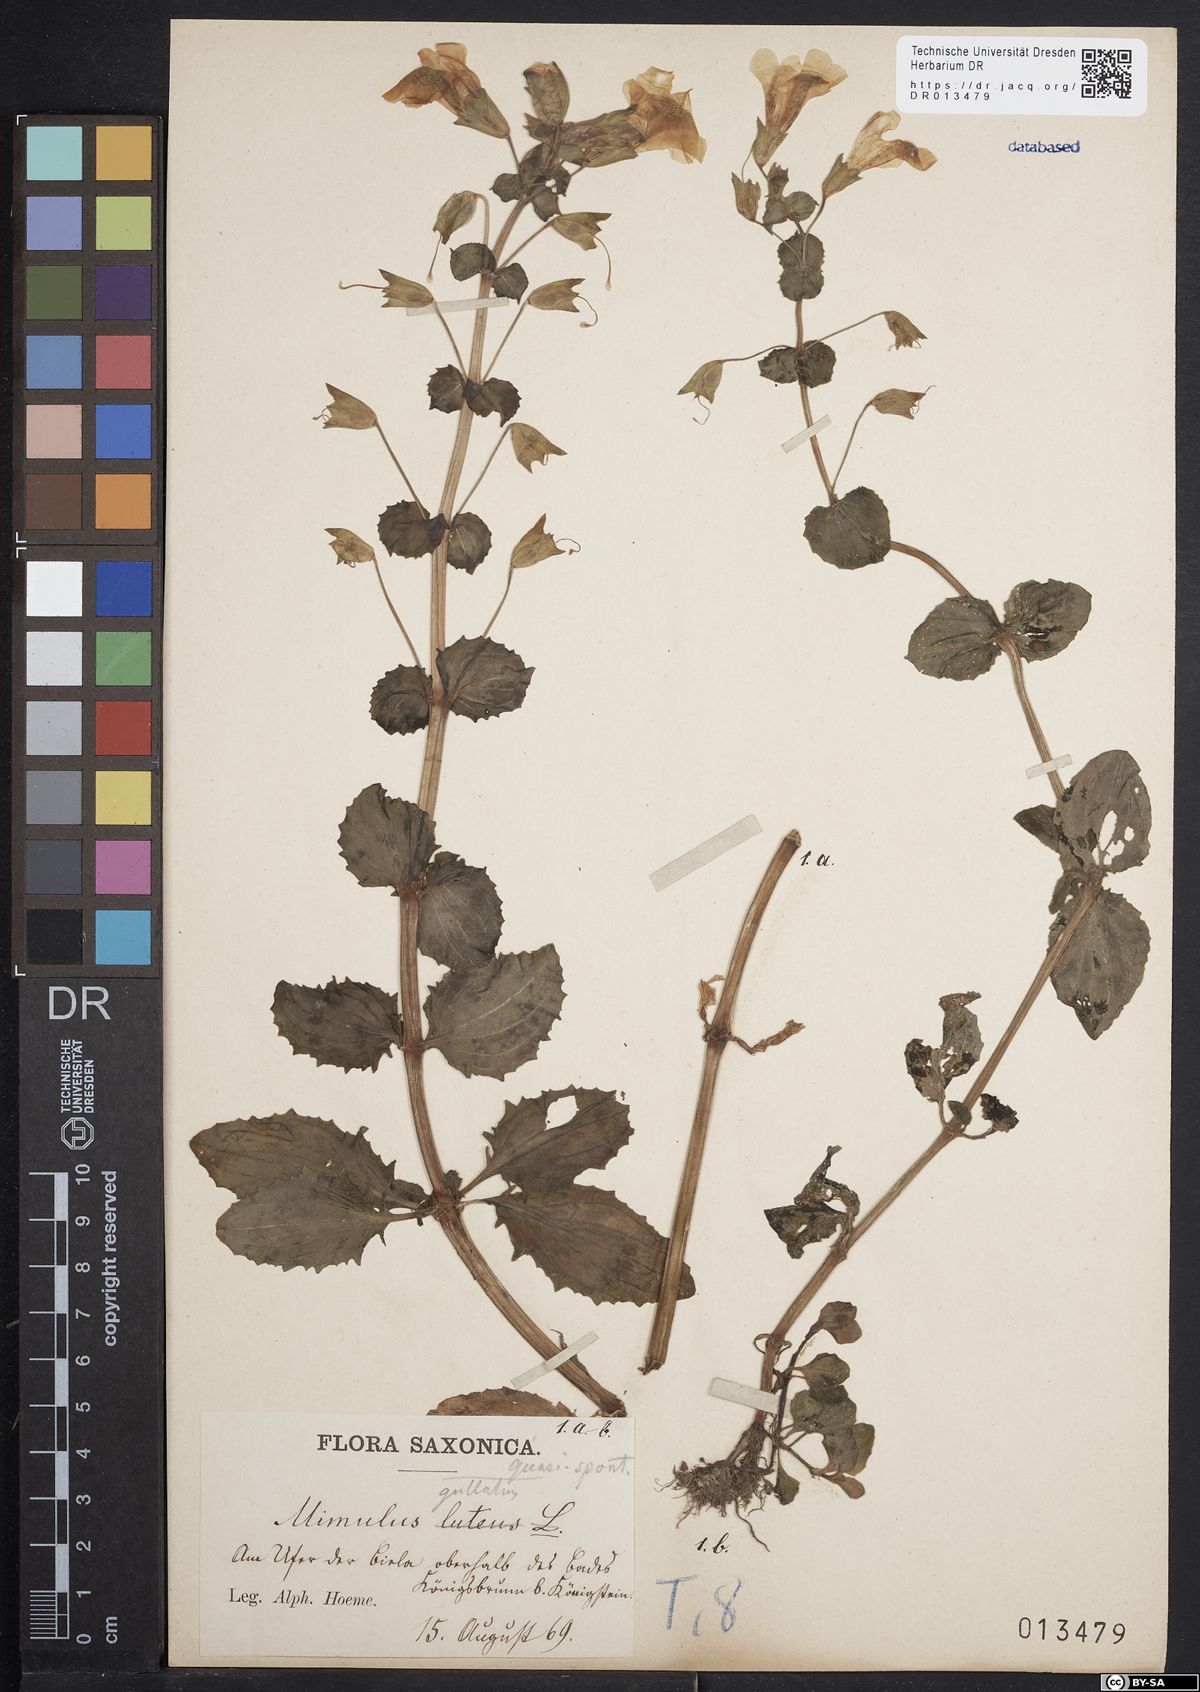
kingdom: Plantae
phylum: Tracheophyta
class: Magnoliopsida
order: Lamiales
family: Phrymaceae
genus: Erythranthe
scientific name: Erythranthe guttata
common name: Monkeyflower
